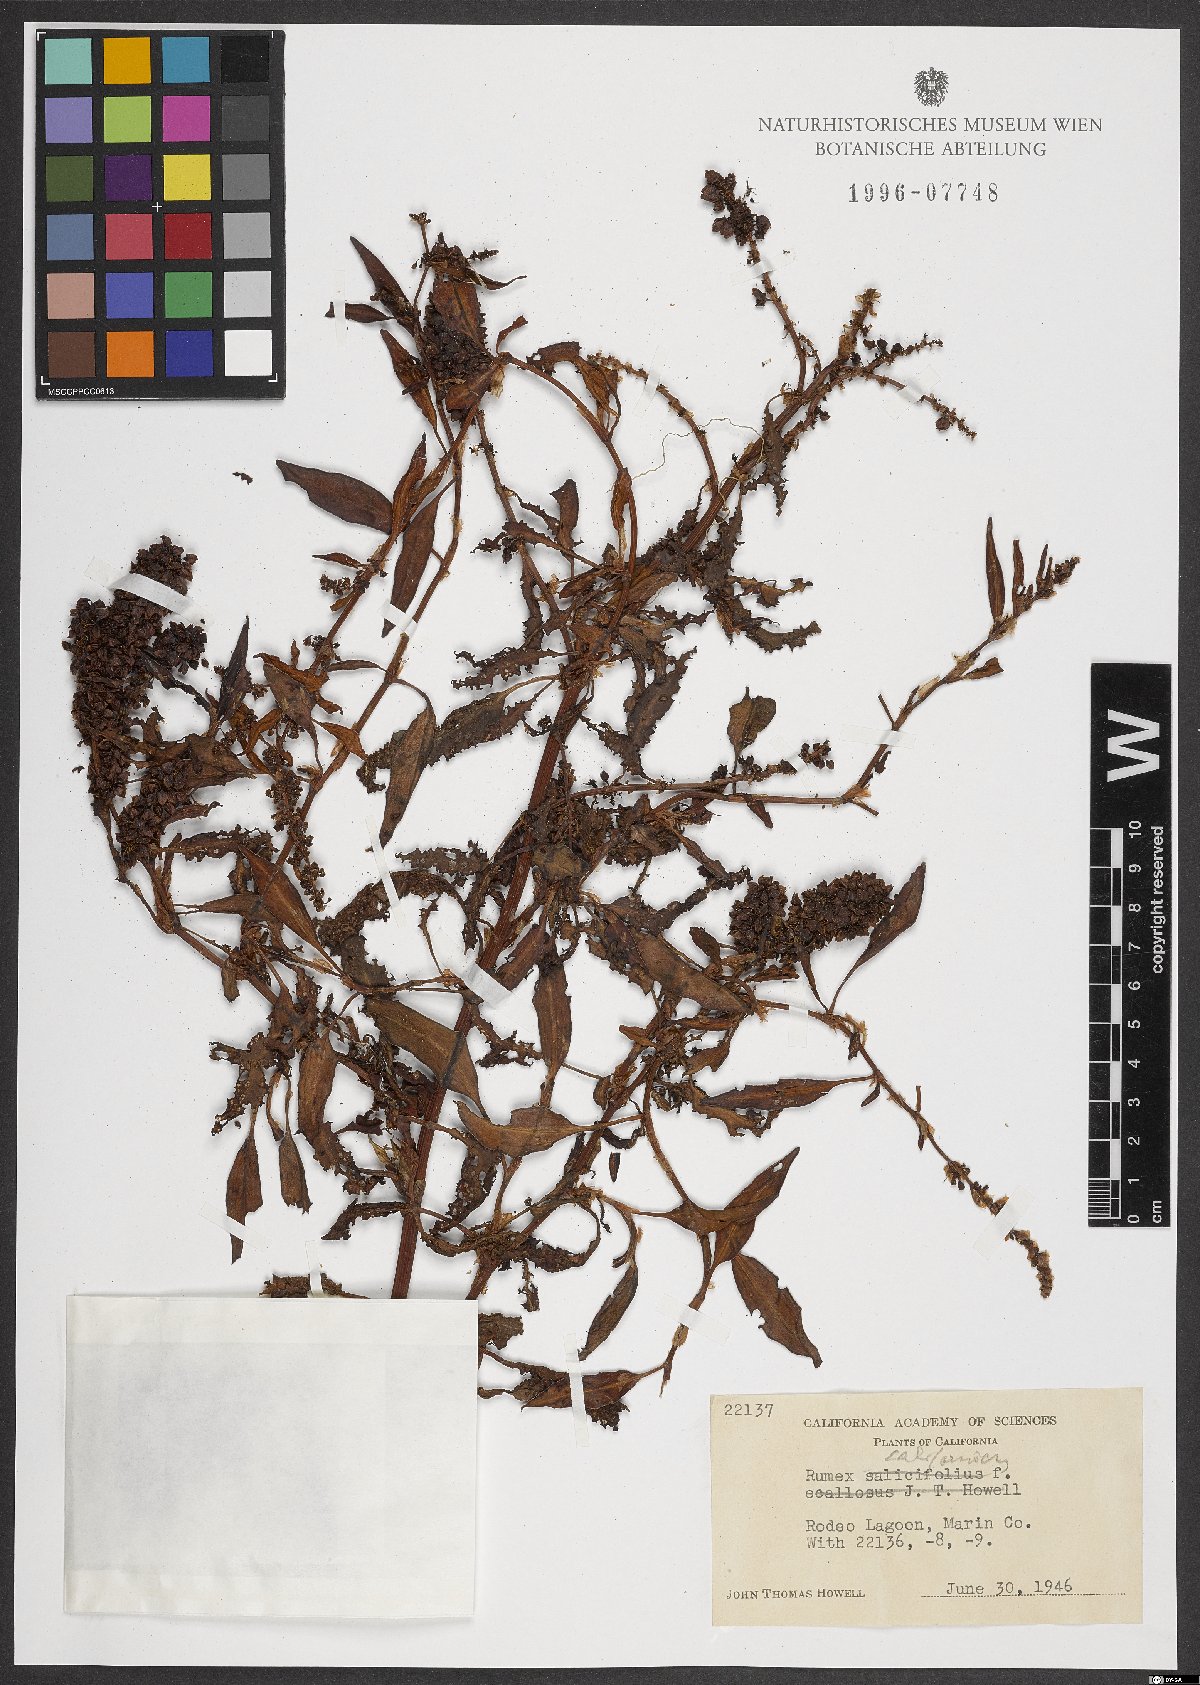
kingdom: Plantae
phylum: Tracheophyta
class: Magnoliopsida
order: Caryophyllales
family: Polygonaceae
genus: Rumex
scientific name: Rumex californicus
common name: California willow dock
